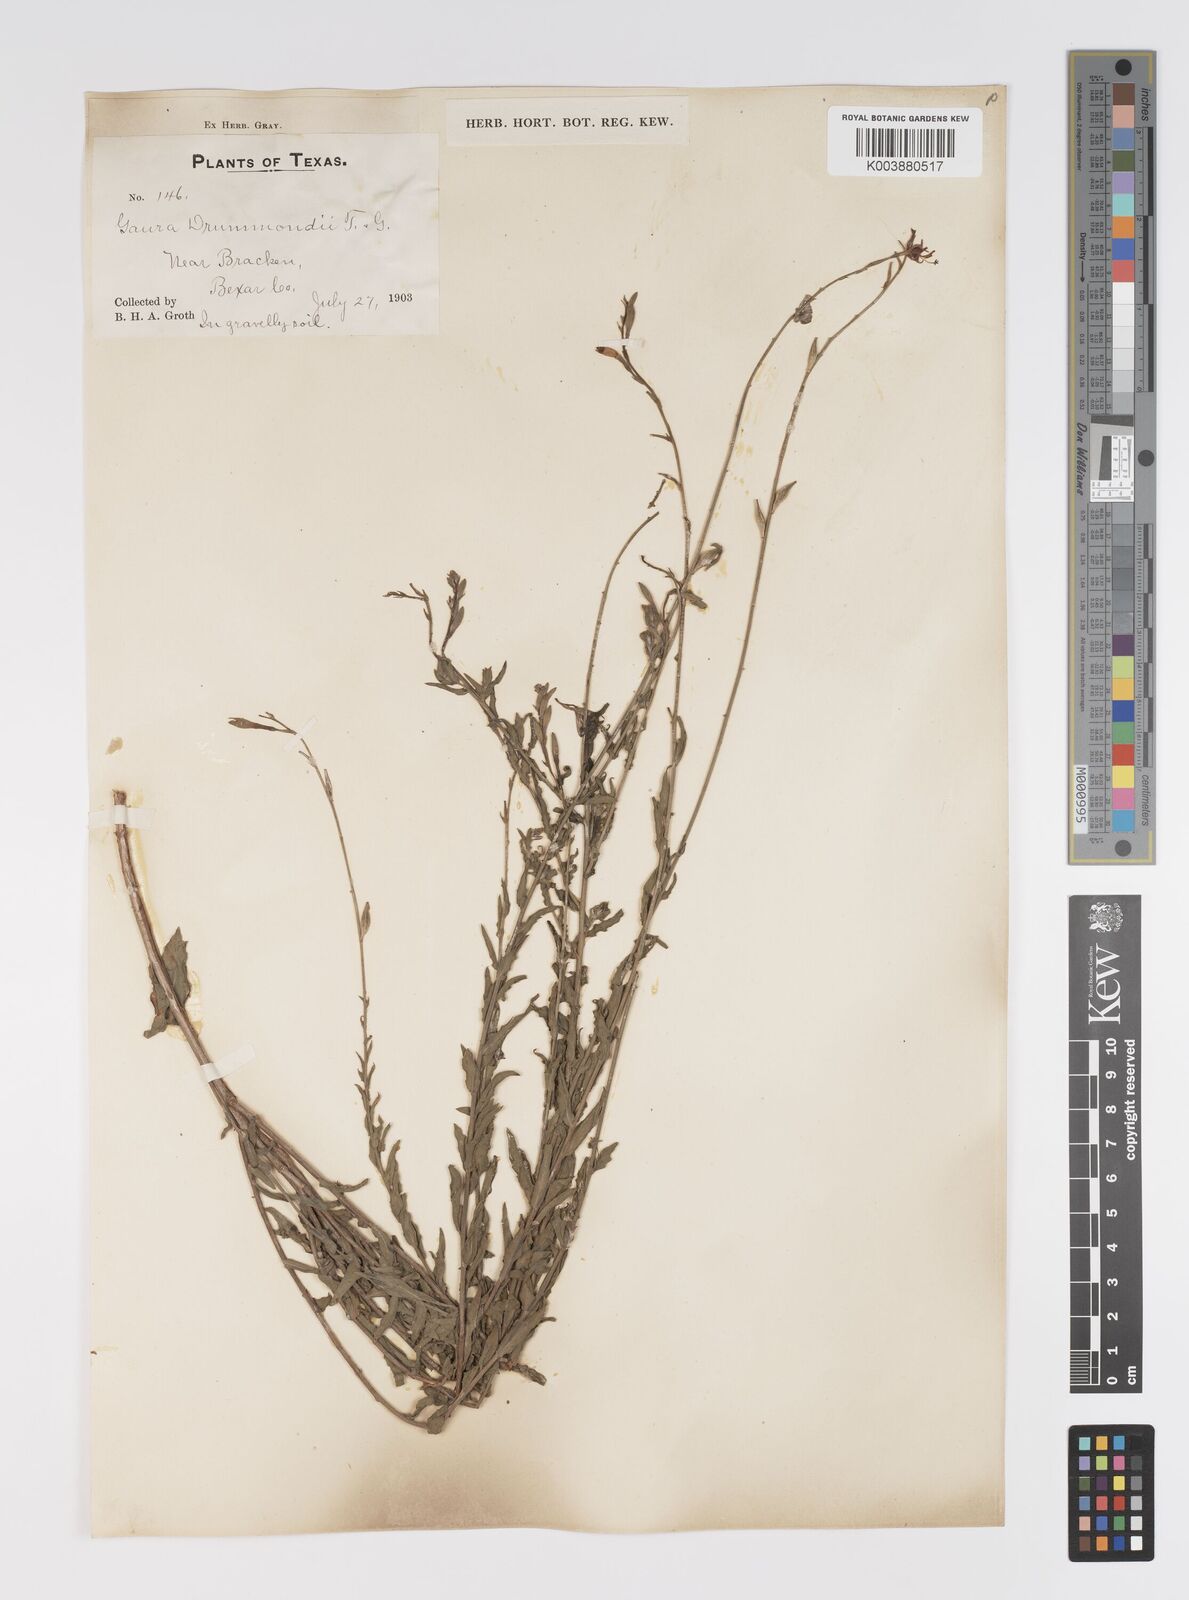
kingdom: Plantae
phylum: Tracheophyta
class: Magnoliopsida
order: Myrtales
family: Onagraceae
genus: Oenothera
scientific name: Oenothera hispida
